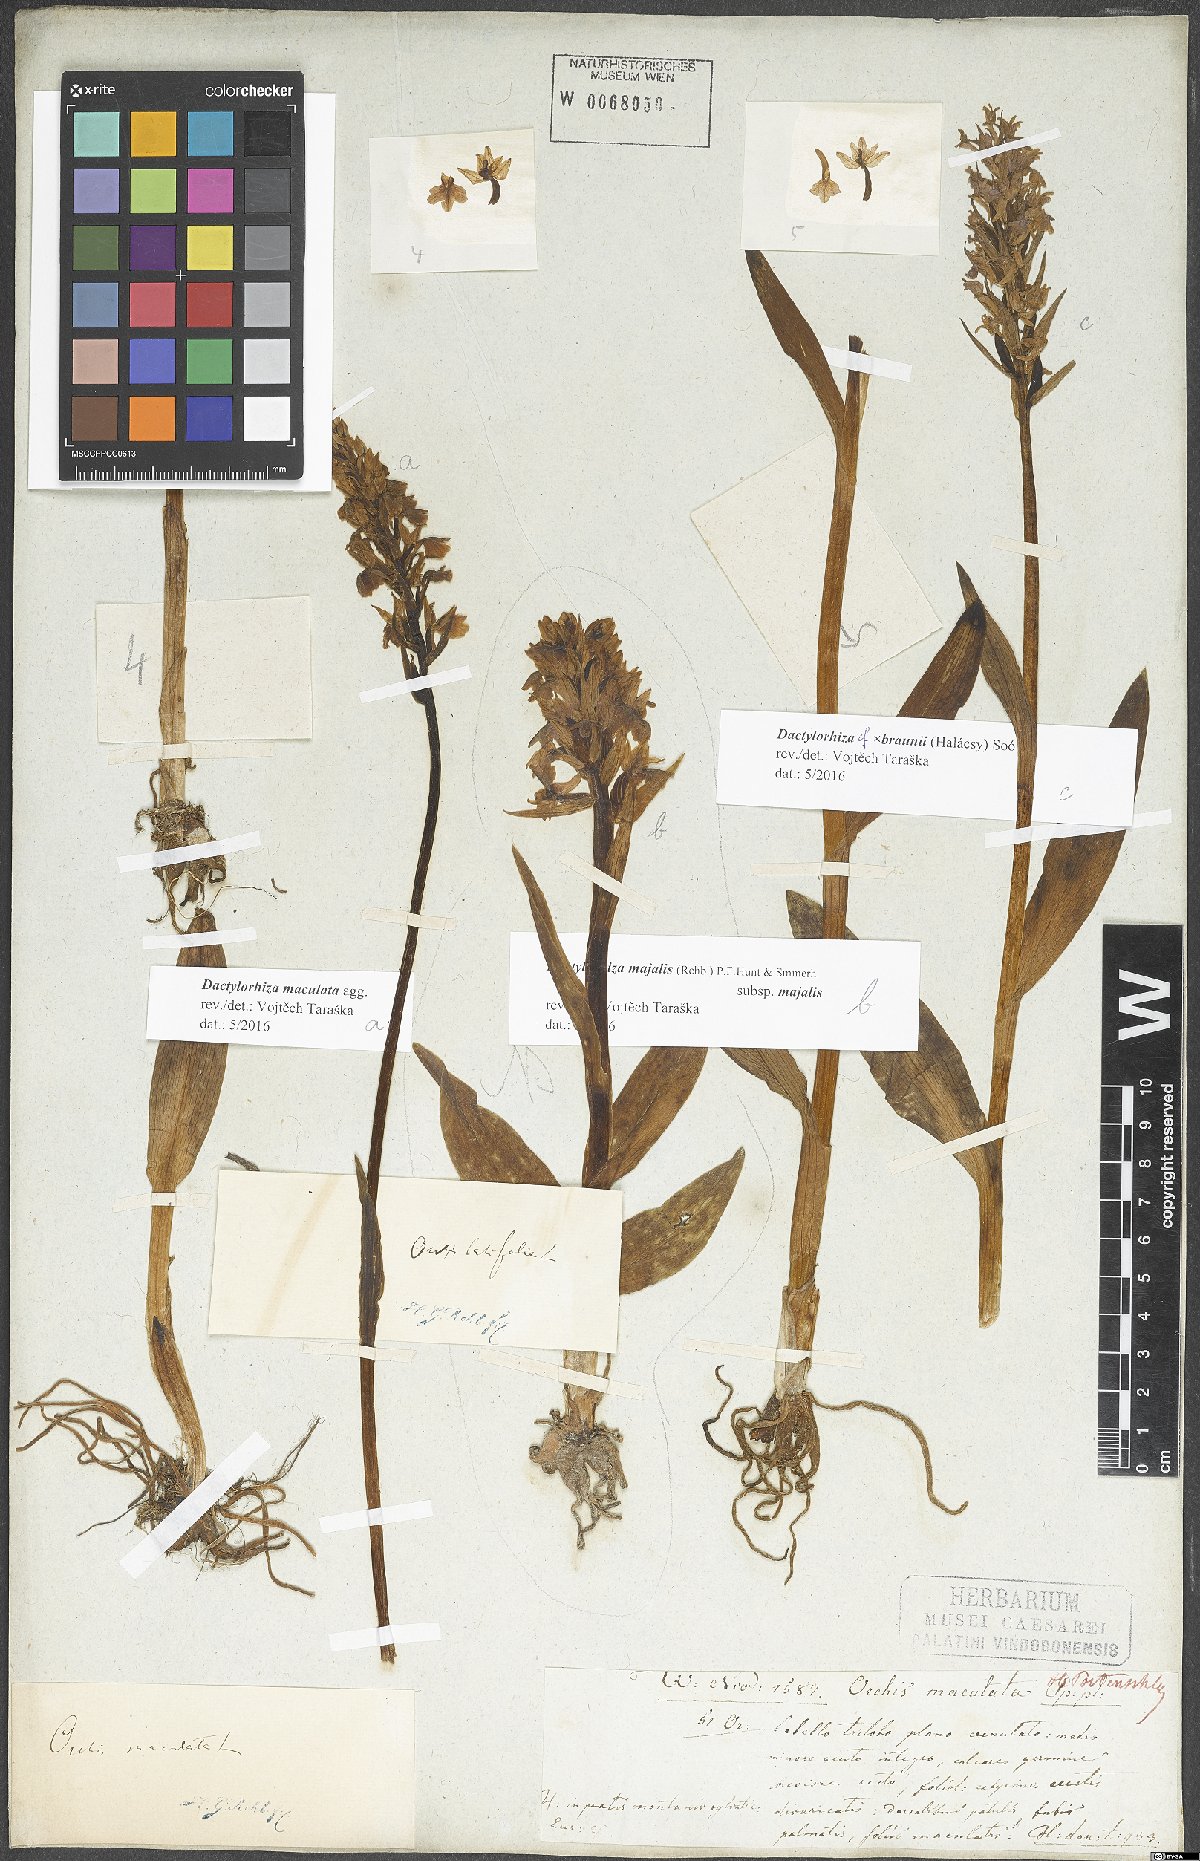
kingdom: Plantae
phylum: Tracheophyta
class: Liliopsida
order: Asparagales
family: Orchidaceae
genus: Dactylorhiza
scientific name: Dactylorhiza maculata
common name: Heath spotted-orchid
